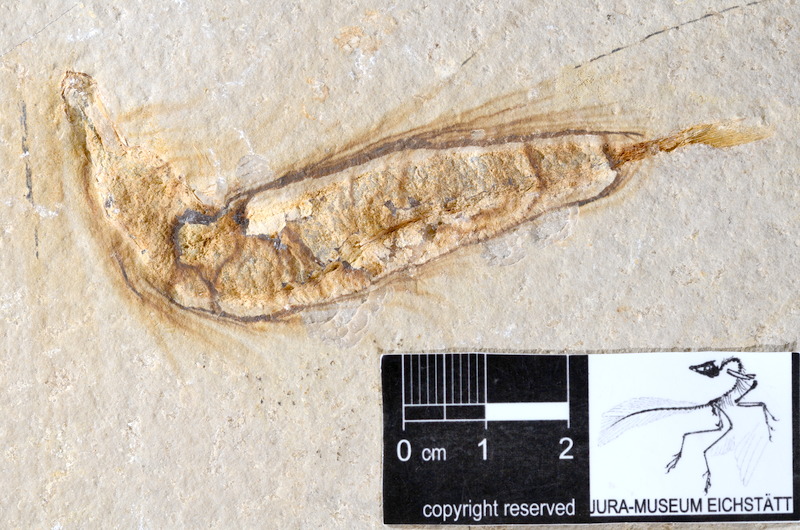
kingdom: Animalia
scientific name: Animalia
